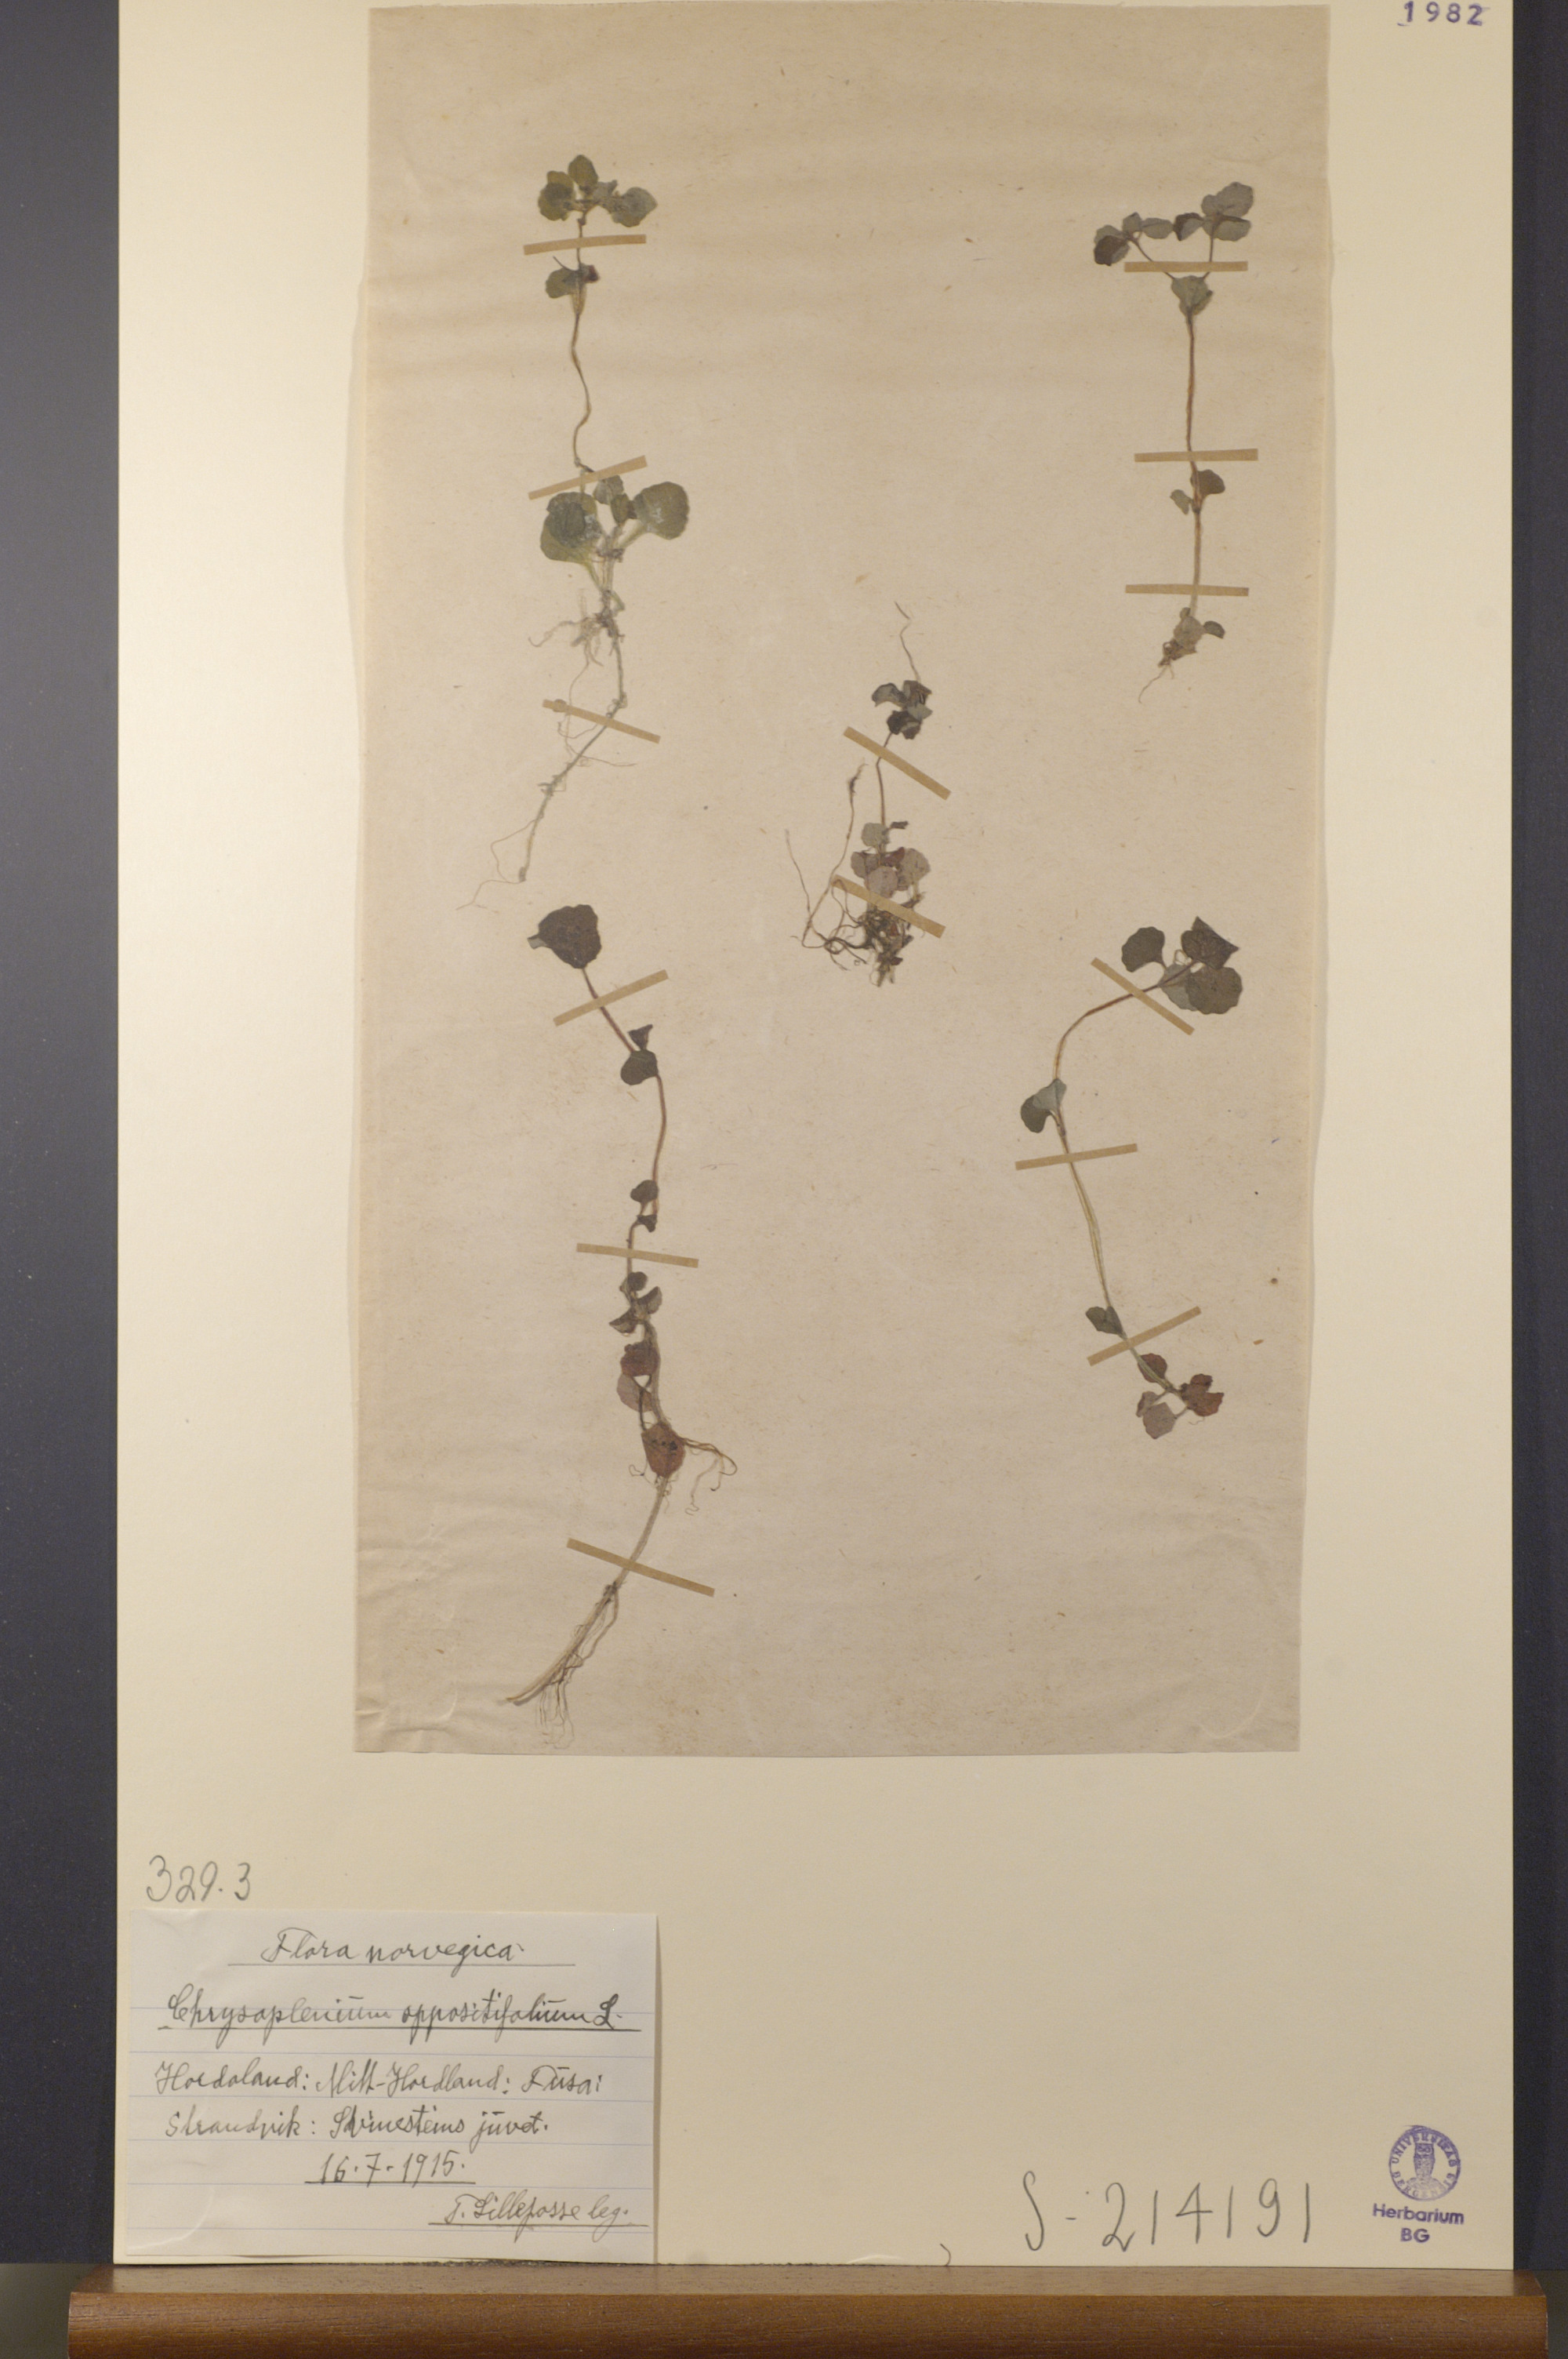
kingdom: Plantae
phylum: Tracheophyta
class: Magnoliopsida
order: Saxifragales
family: Saxifragaceae
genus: Chrysosplenium
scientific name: Chrysosplenium oppositifolium
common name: Opposite-leaved golden-saxifrage
